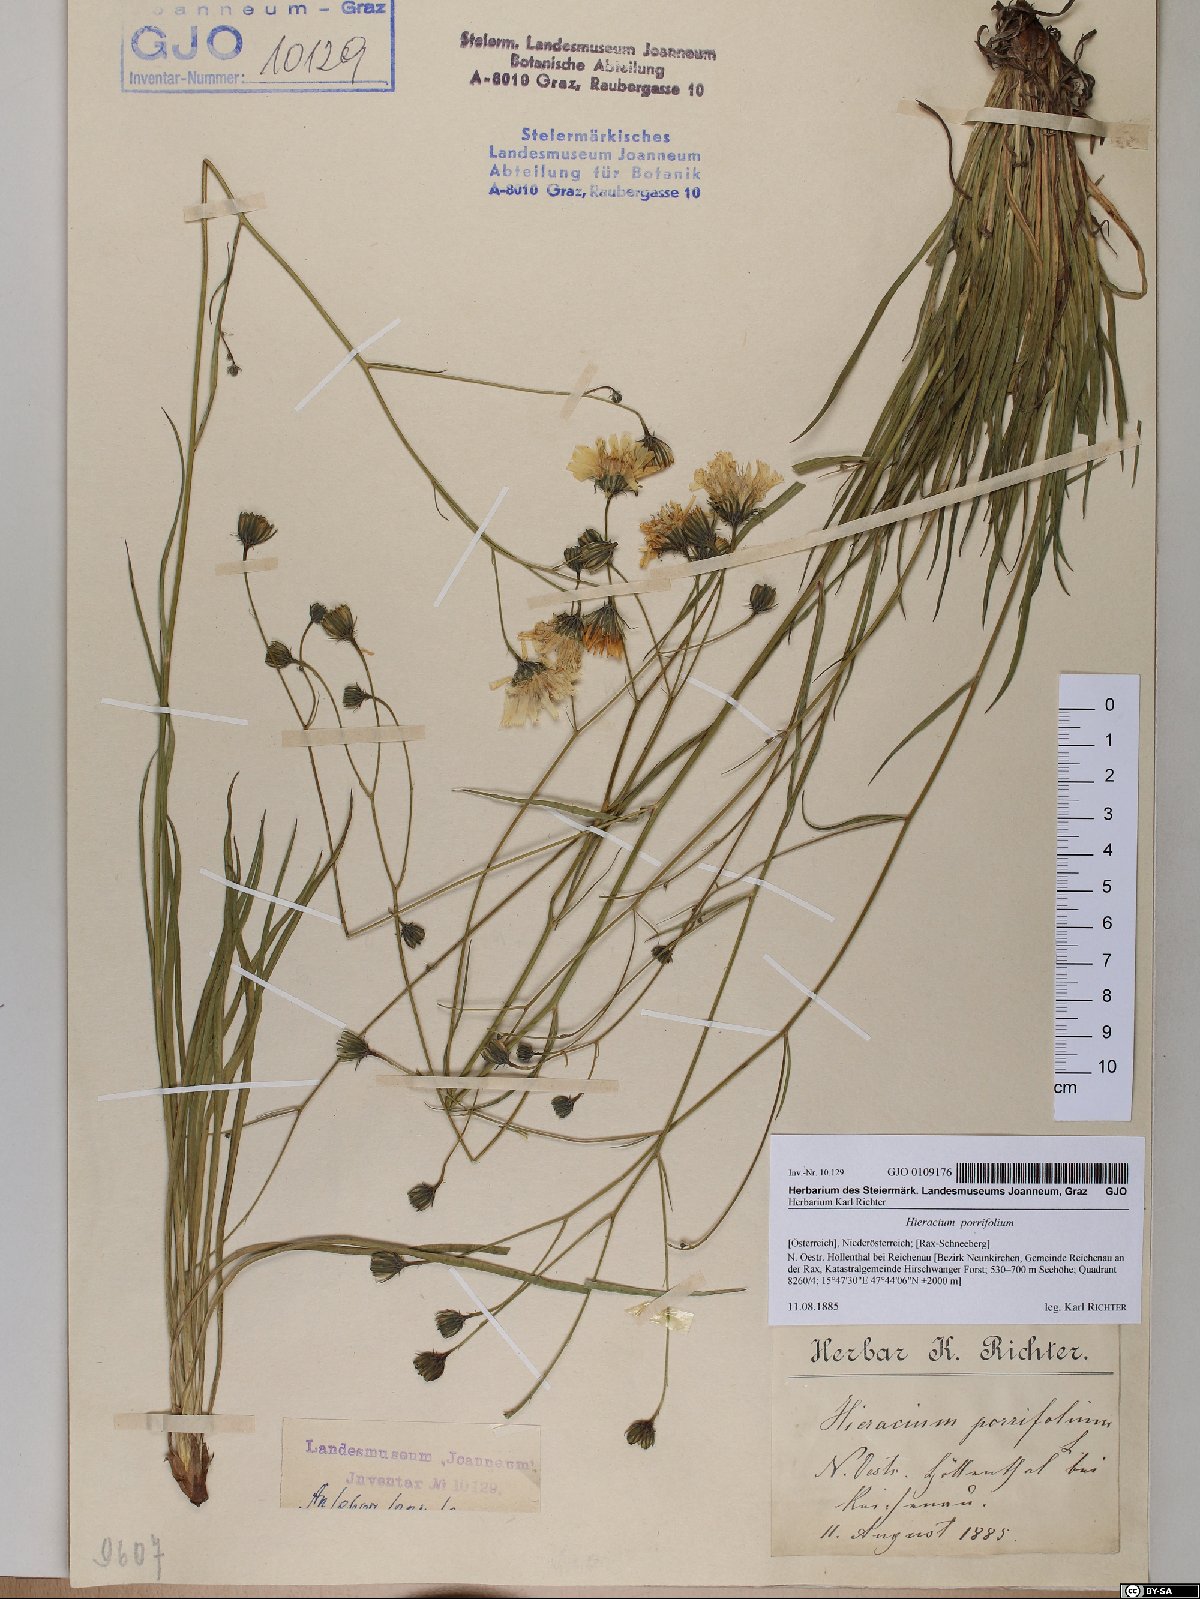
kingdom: Plantae
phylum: Tracheophyta
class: Magnoliopsida
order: Asterales
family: Asteraceae
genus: Hieracium
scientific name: Hieracium porrifolium
